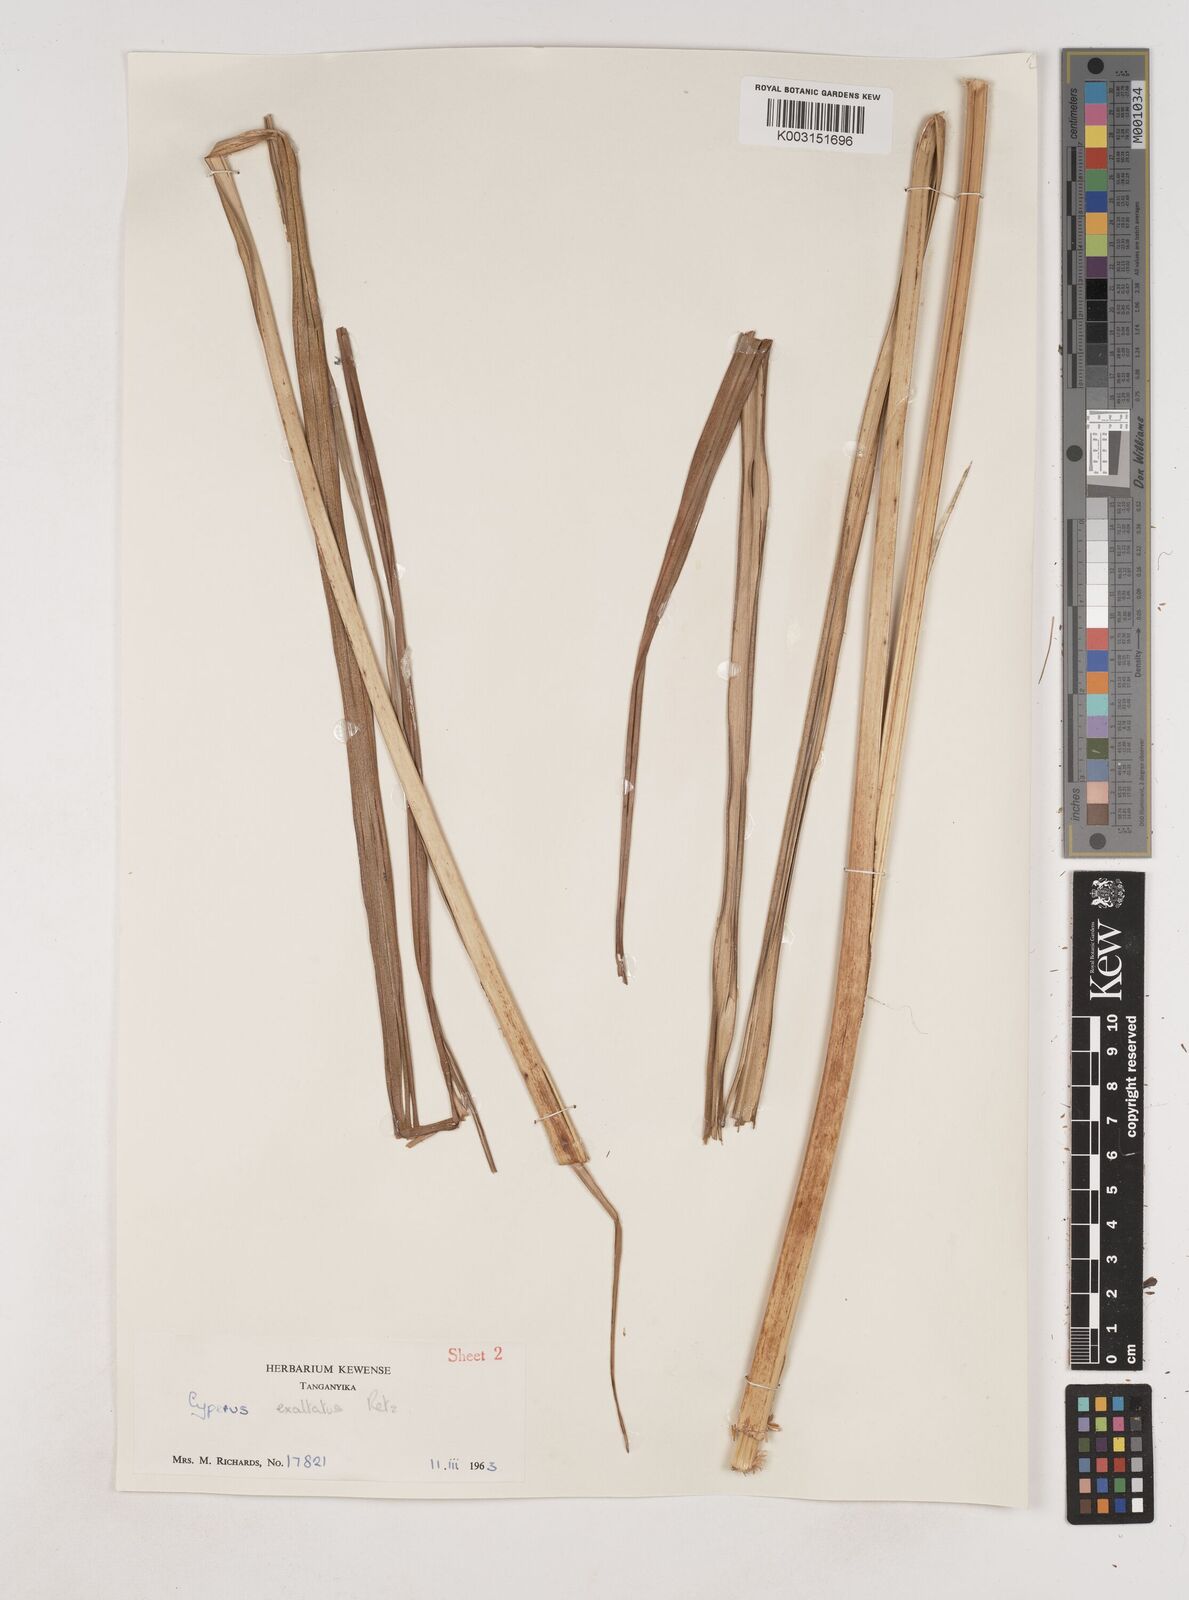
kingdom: Plantae
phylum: Tracheophyta
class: Liliopsida
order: Poales
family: Cyperaceae
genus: Cyperus
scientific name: Cyperus exaltatus
